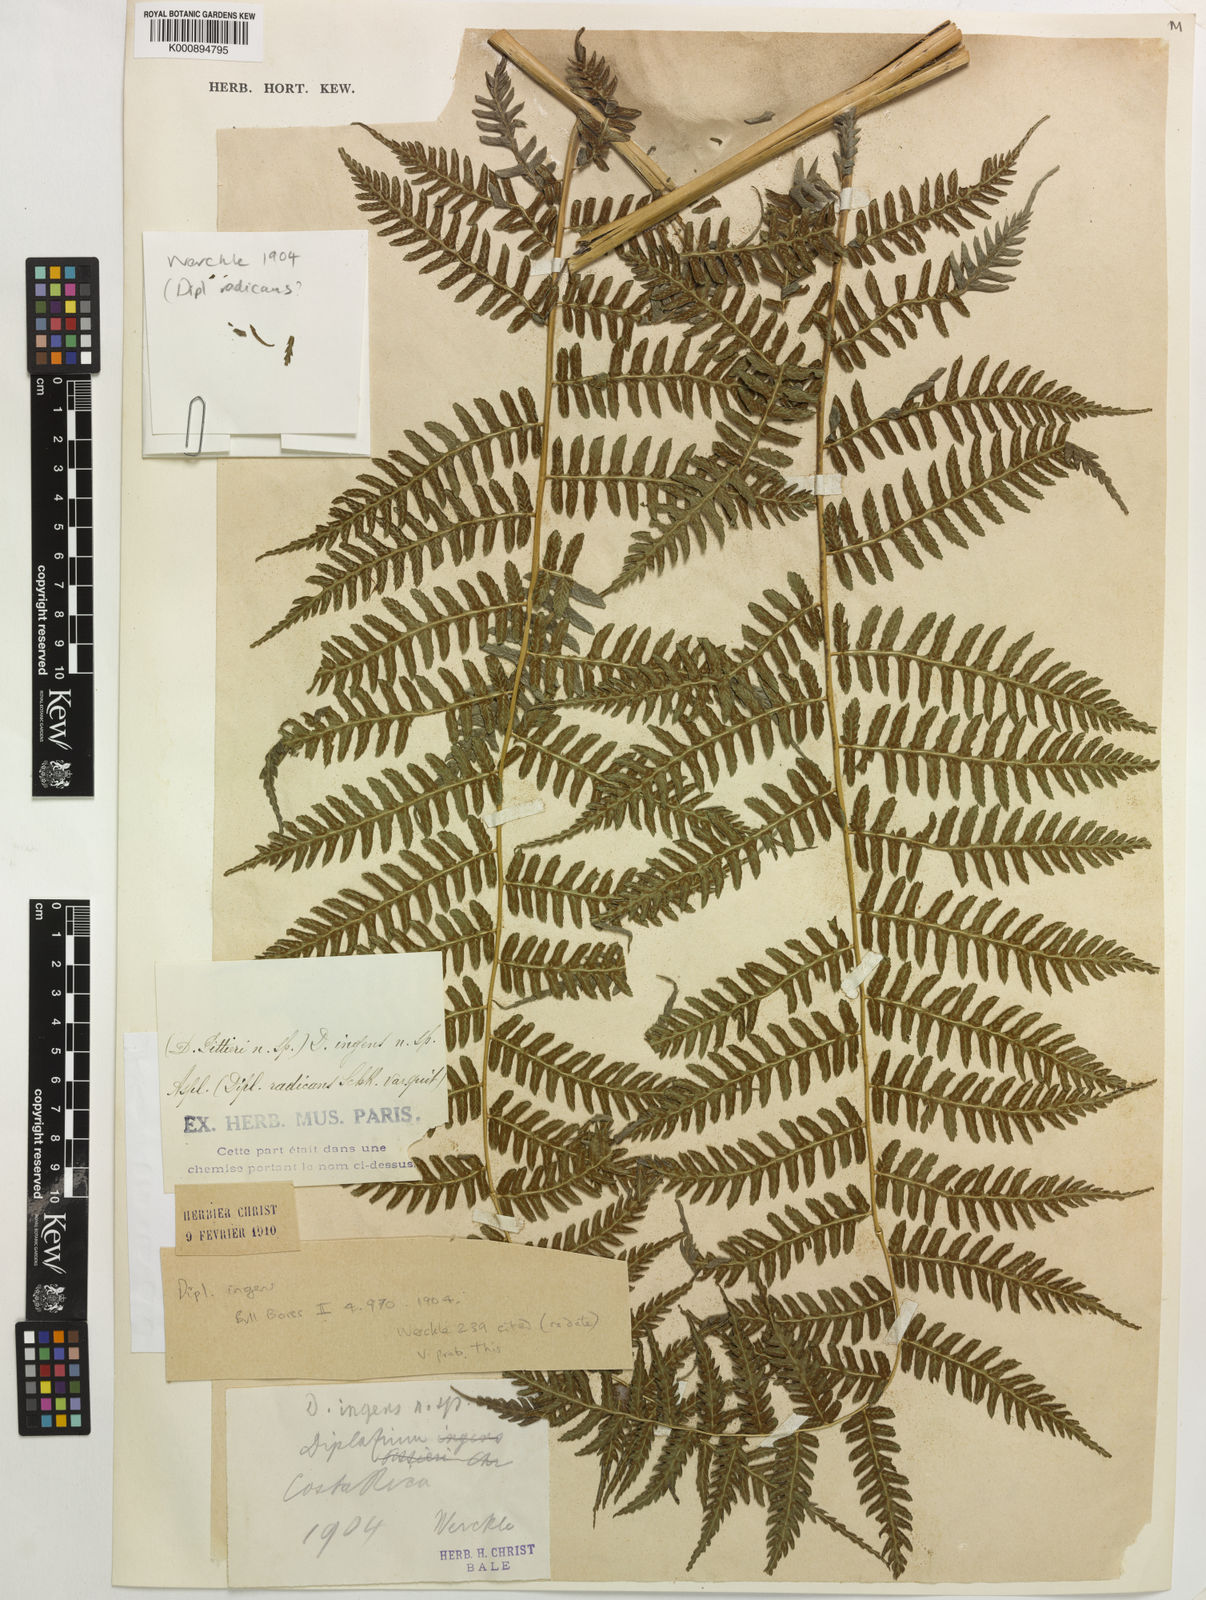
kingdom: Plantae
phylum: Tracheophyta
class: Polypodiopsida
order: Polypodiales
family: Athyriaceae
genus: Diplazium
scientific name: Diplazium ingens
